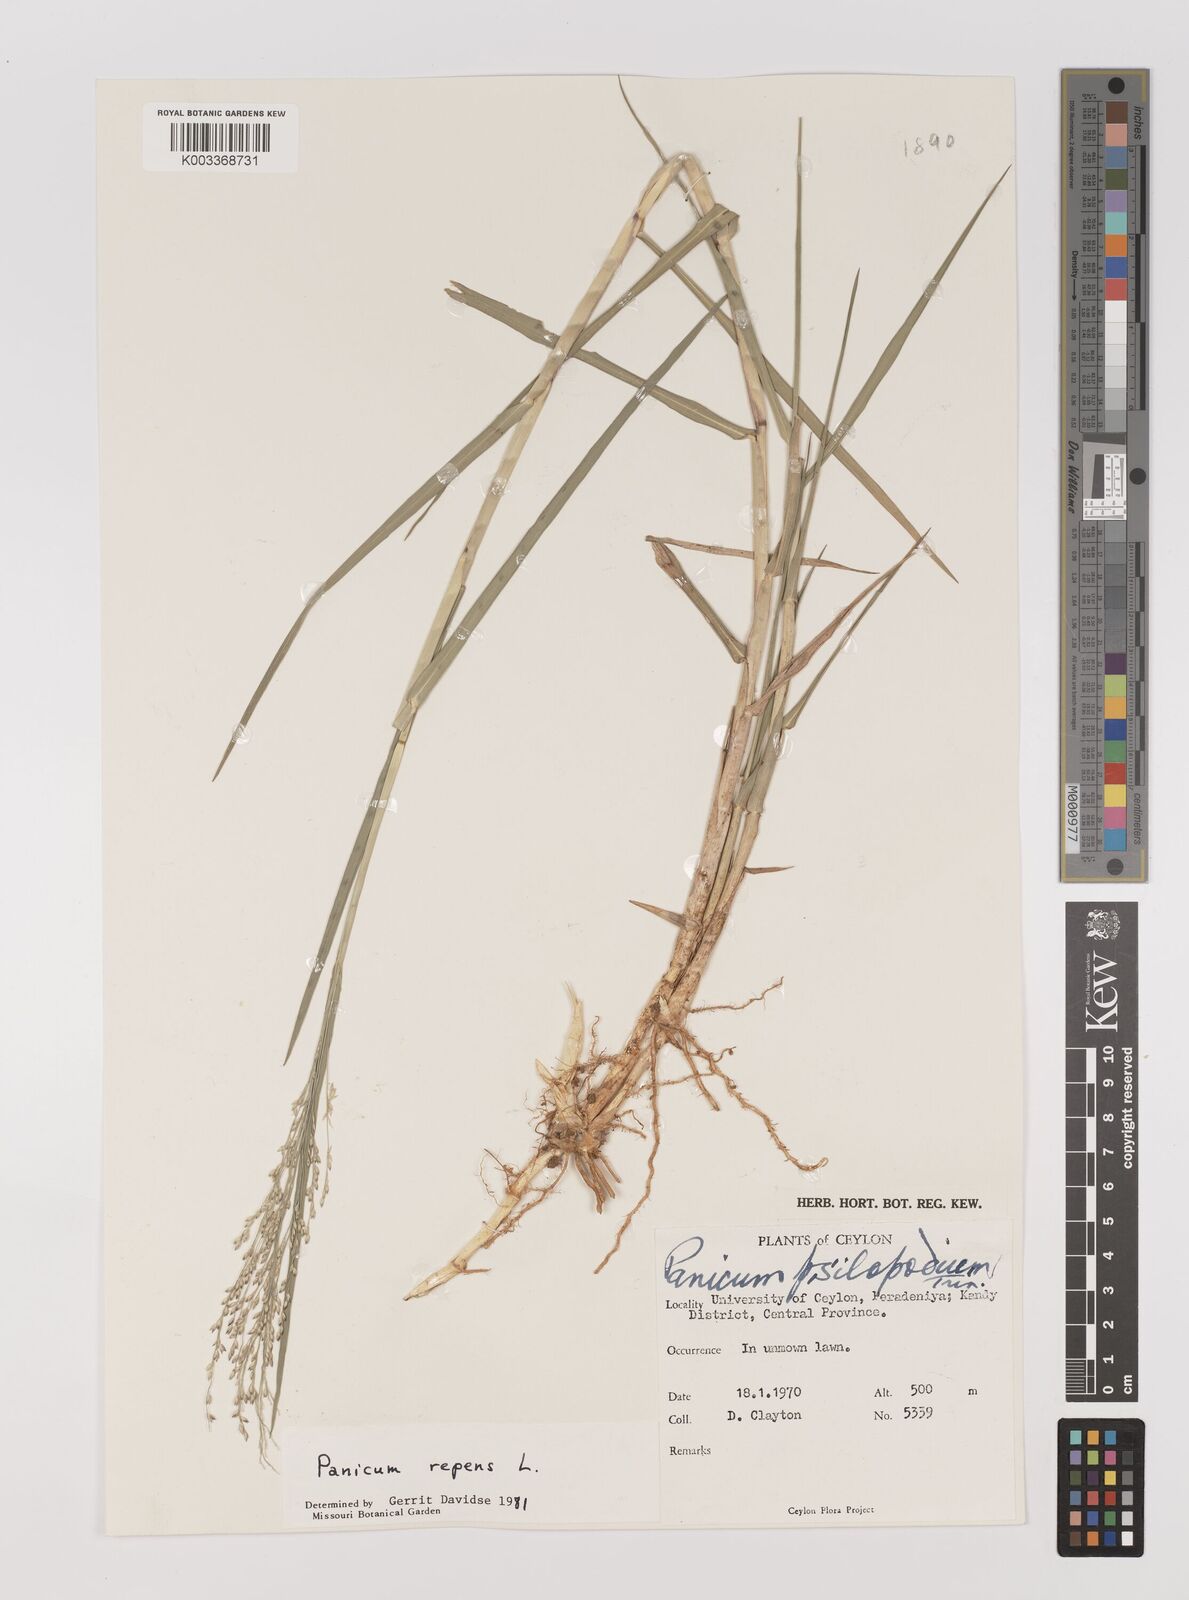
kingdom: Plantae
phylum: Tracheophyta
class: Liliopsida
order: Poales
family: Poaceae
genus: Panicum
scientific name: Panicum repens
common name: Torpedo grass
